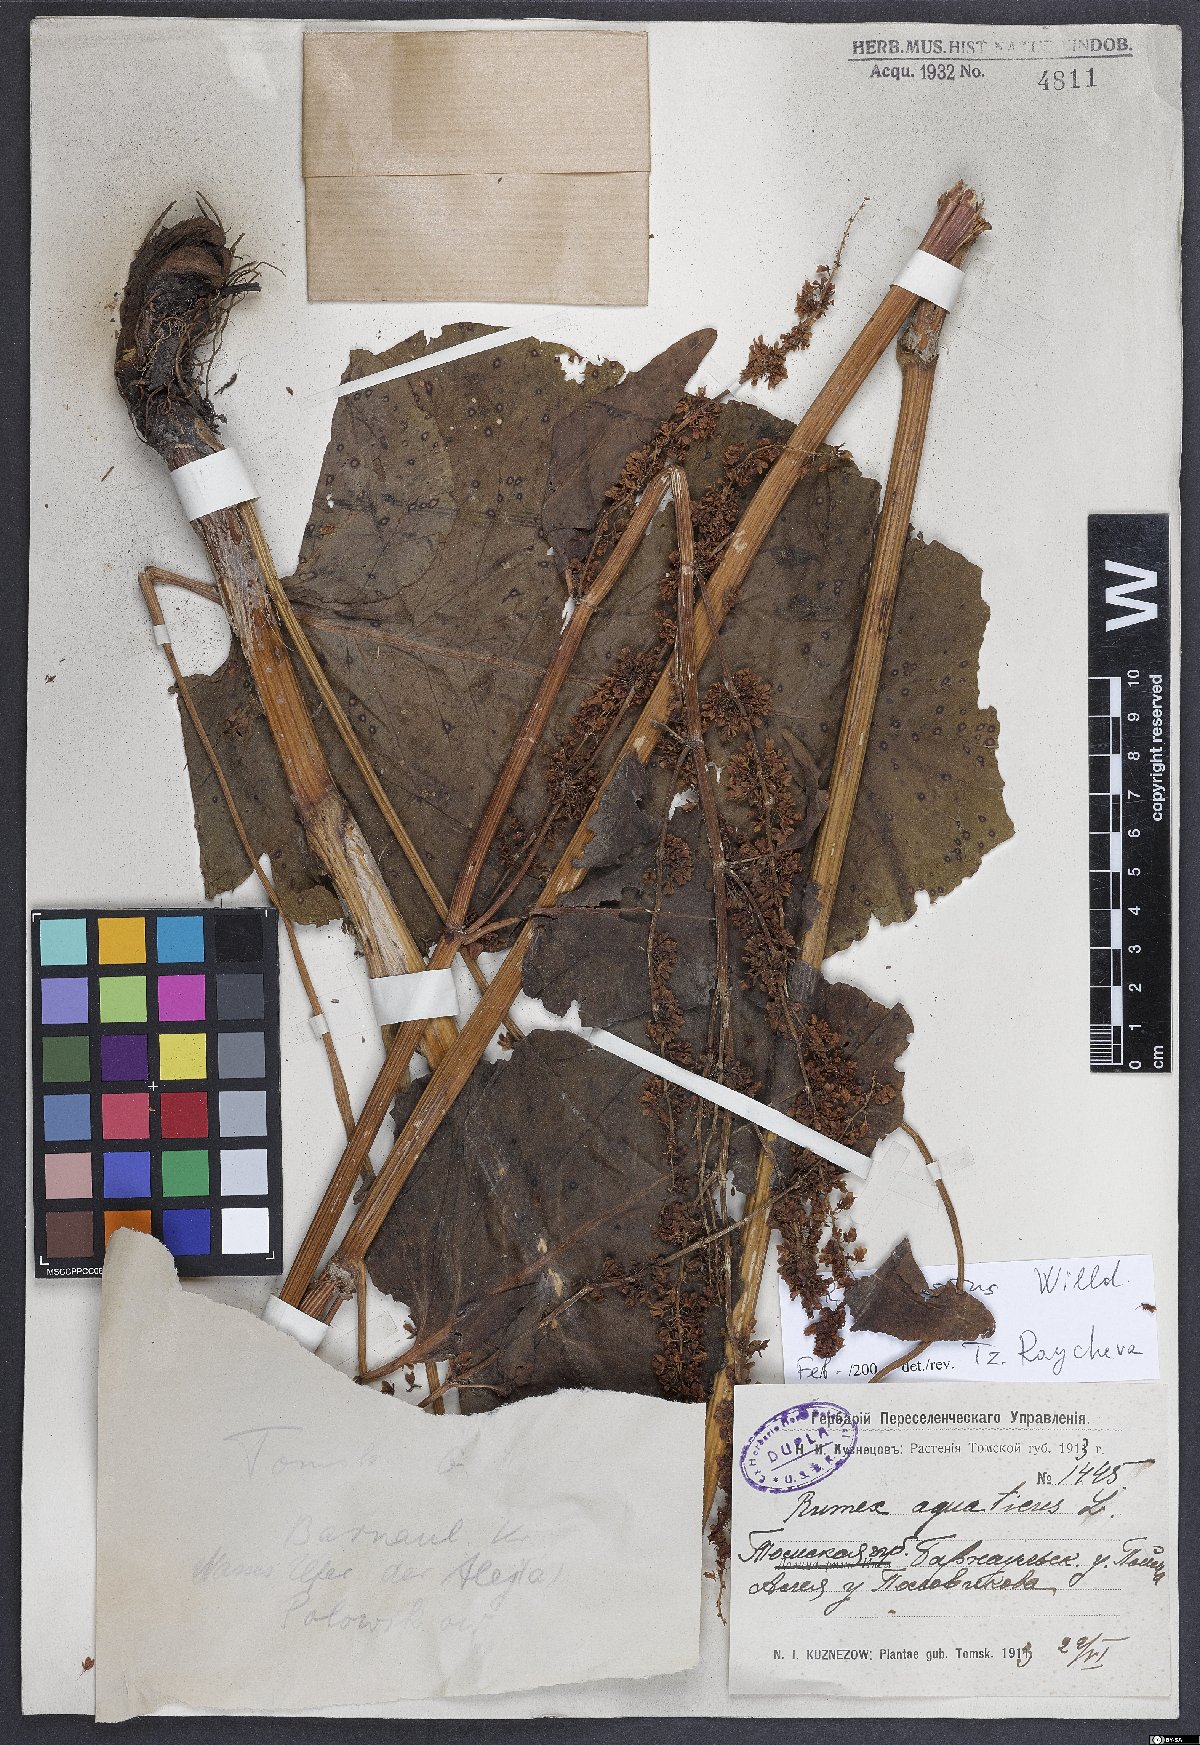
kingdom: Plantae
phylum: Tracheophyta
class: Magnoliopsida
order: Caryophyllales
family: Polygonaceae
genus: Rumex
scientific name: Rumex confertus
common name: Russian dock
